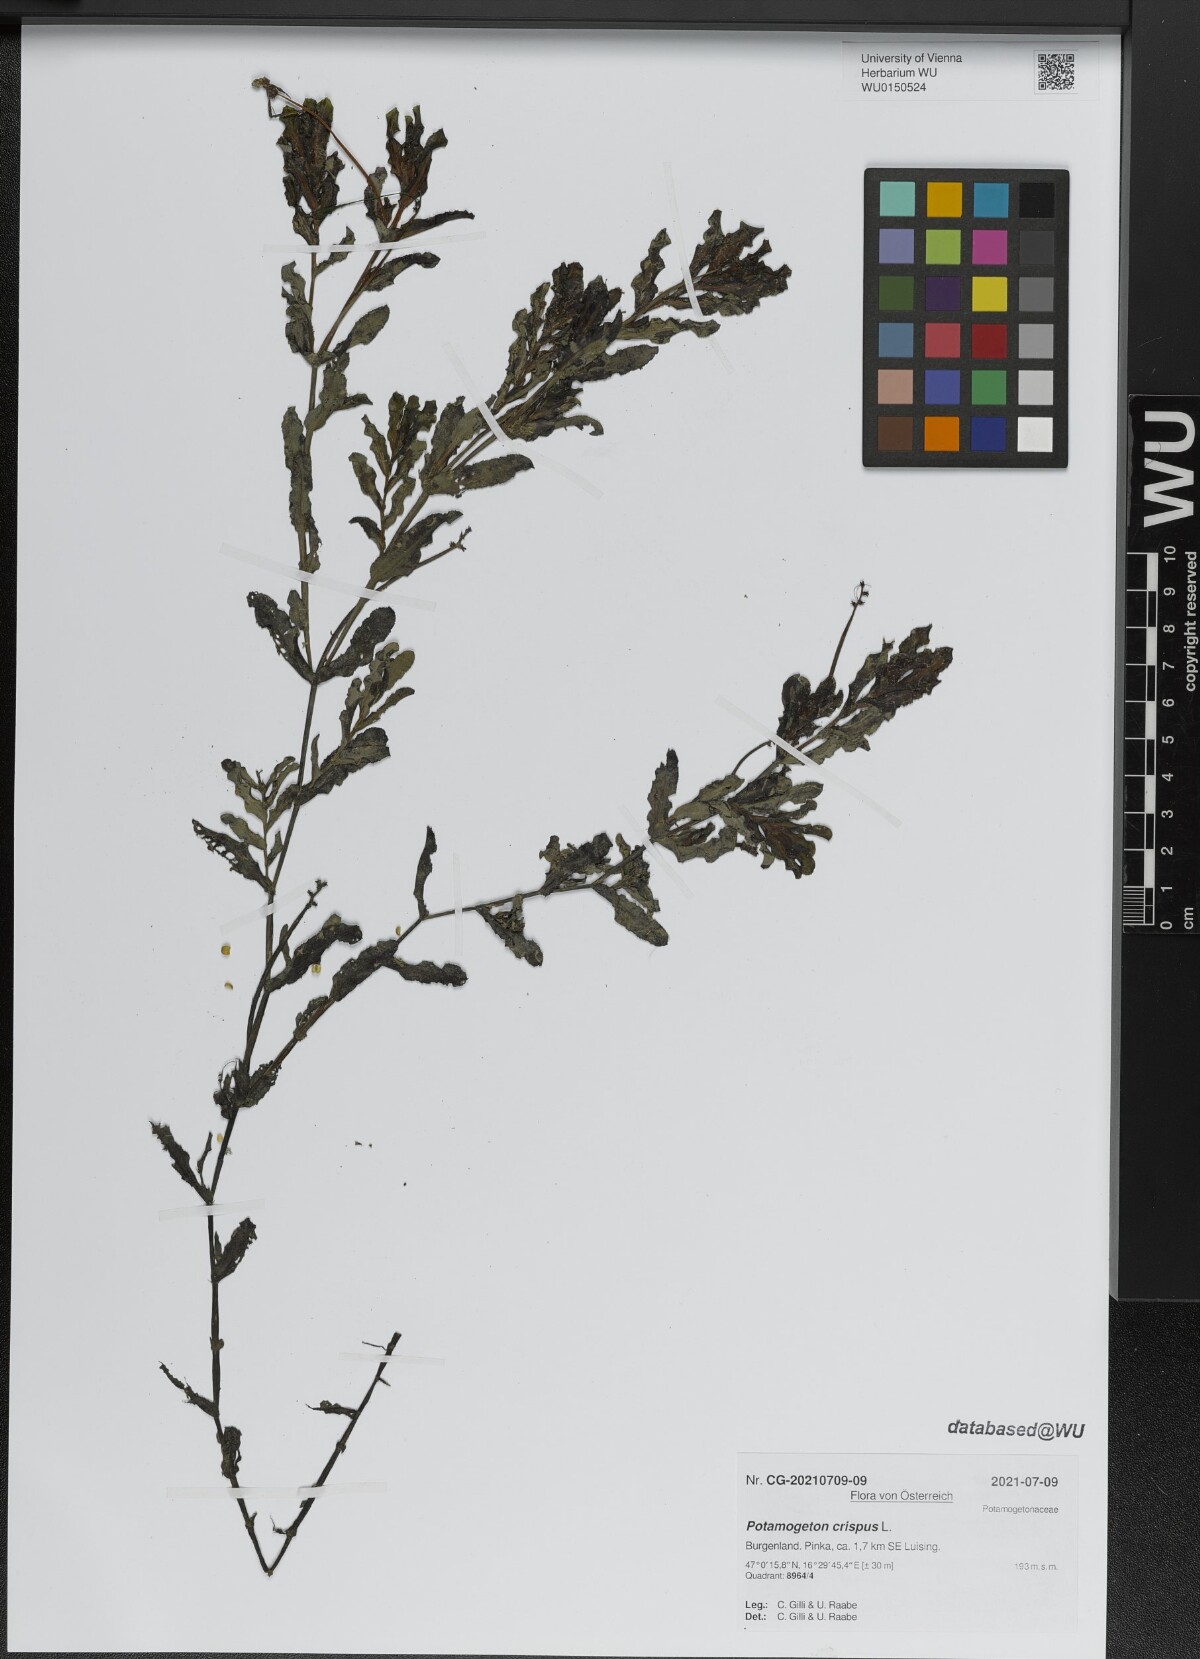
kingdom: Plantae
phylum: Tracheophyta
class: Liliopsida
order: Alismatales
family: Potamogetonaceae
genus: Potamogeton
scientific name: Potamogeton crispus
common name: Curled pondweed
